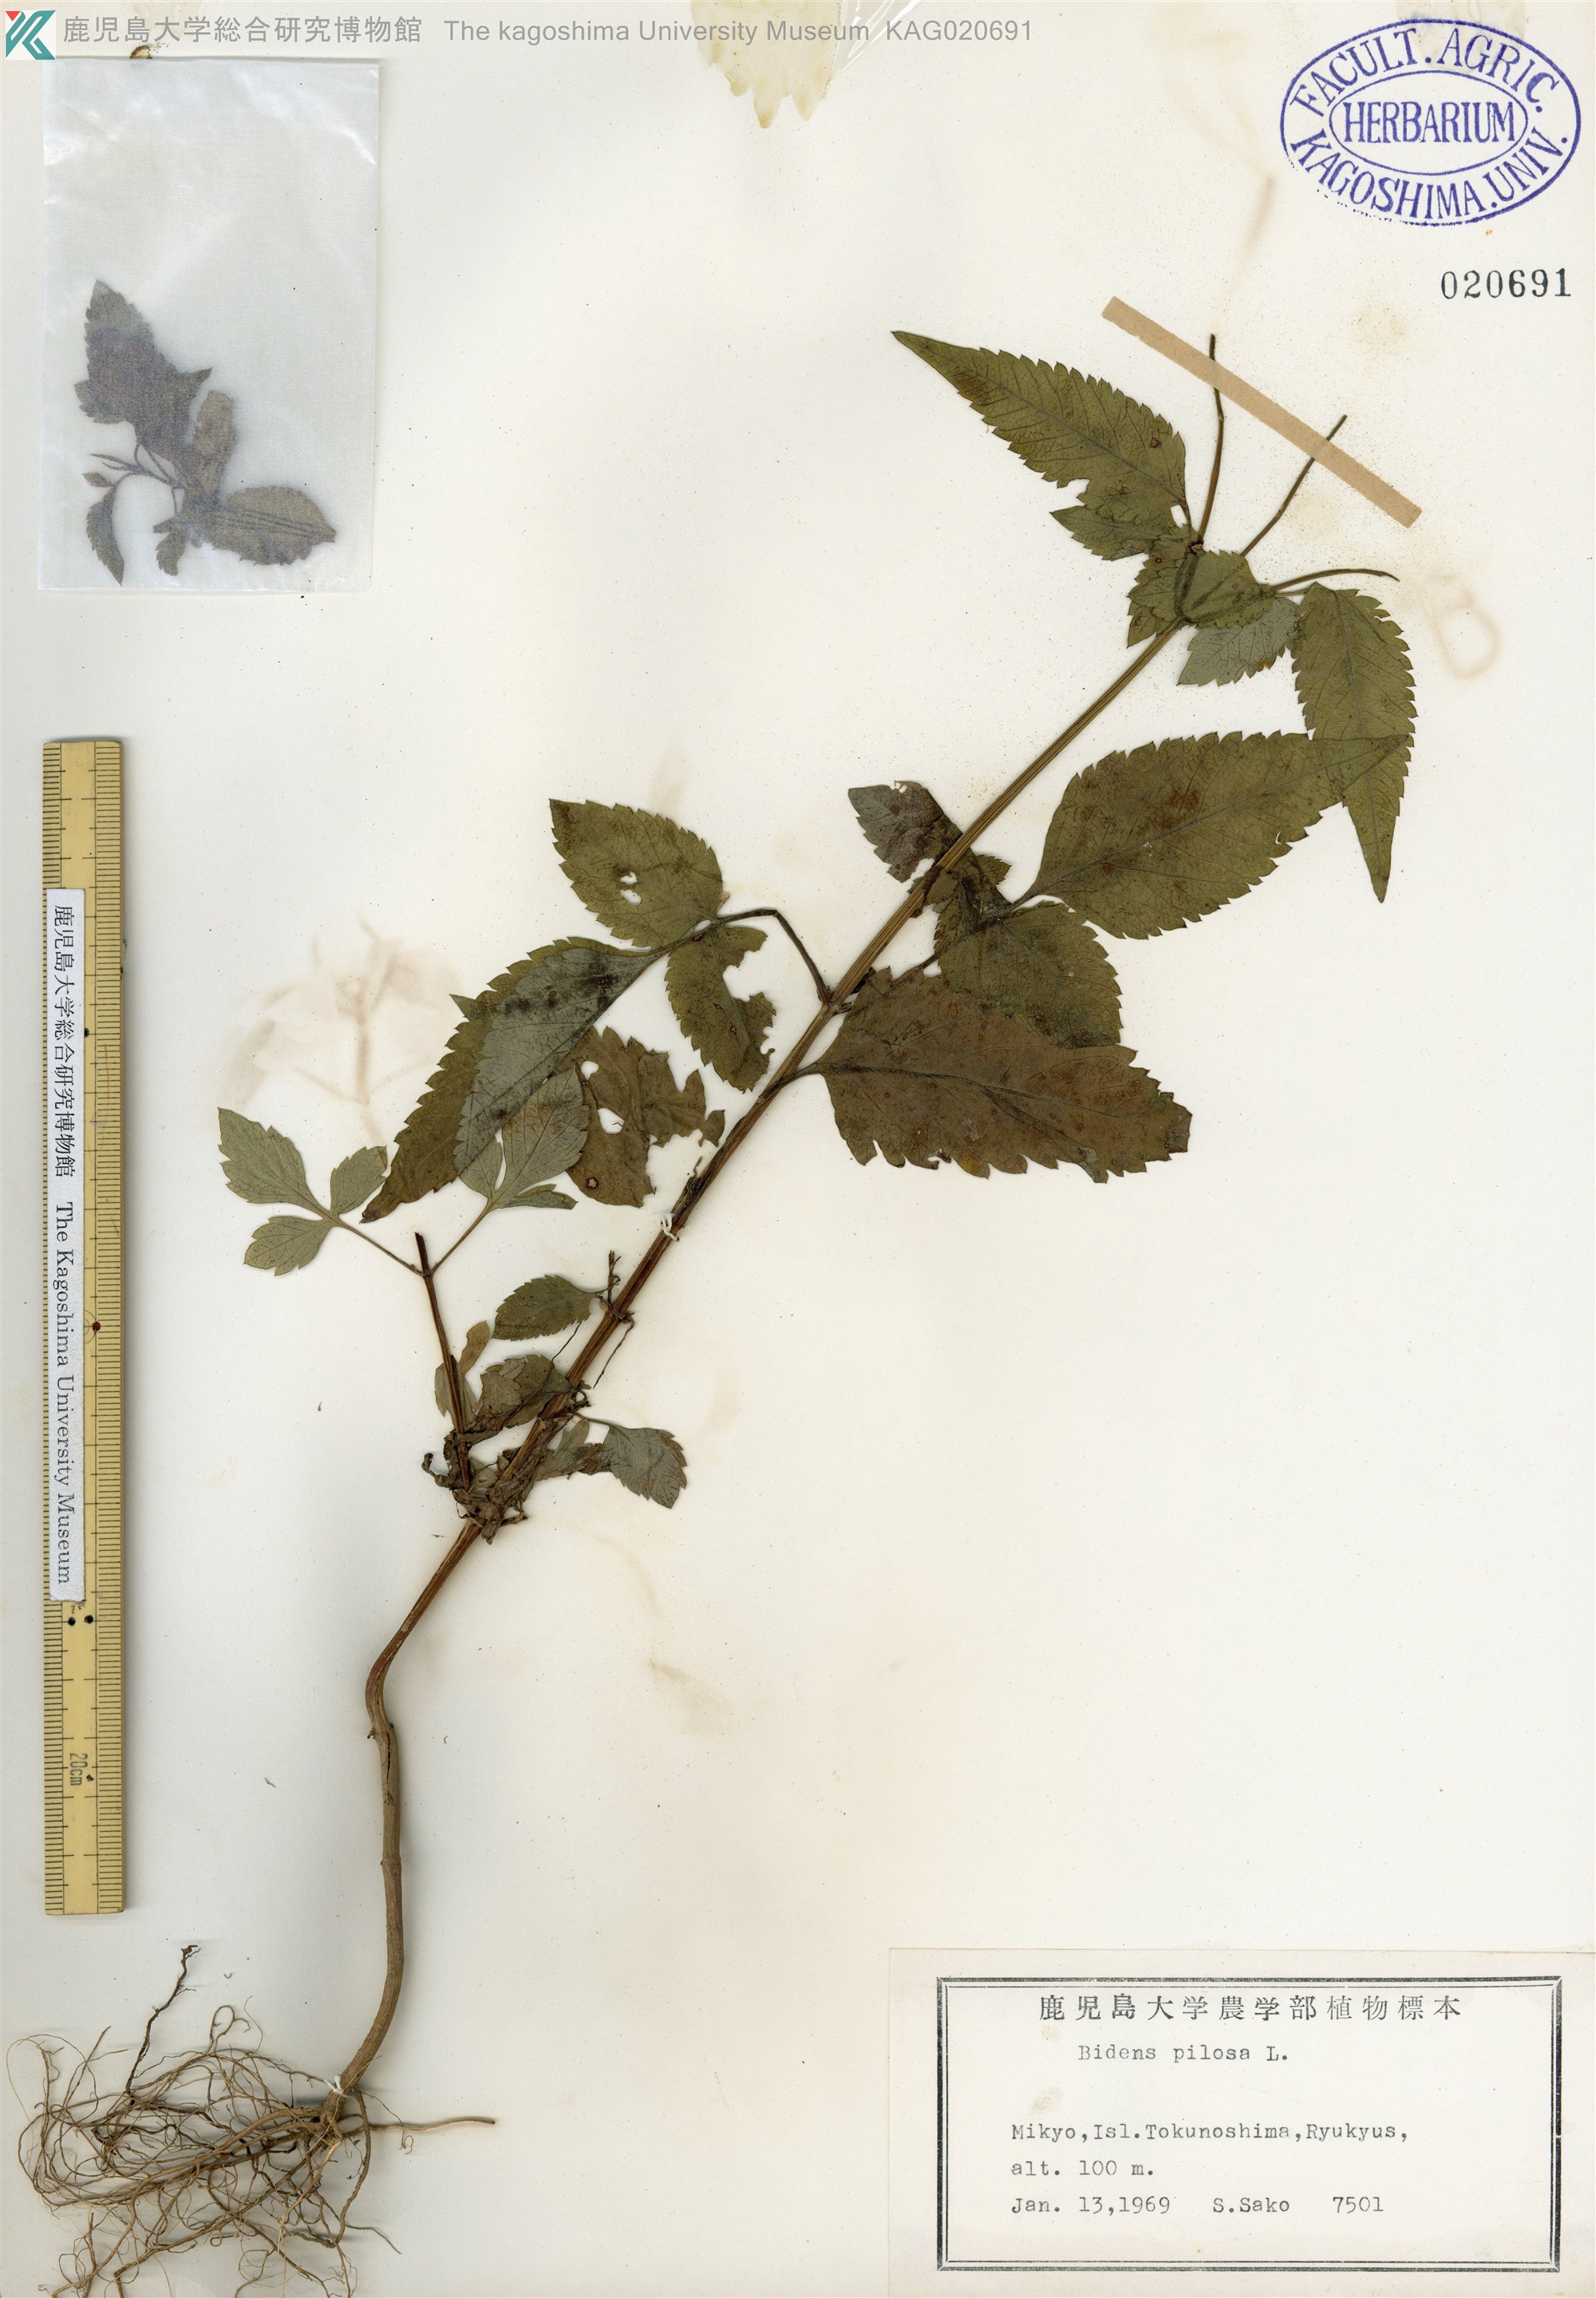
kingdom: Plantae
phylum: Tracheophyta
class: Magnoliopsida
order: Asterales
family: Asteraceae
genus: Bidens
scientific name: Bidens pilosa
